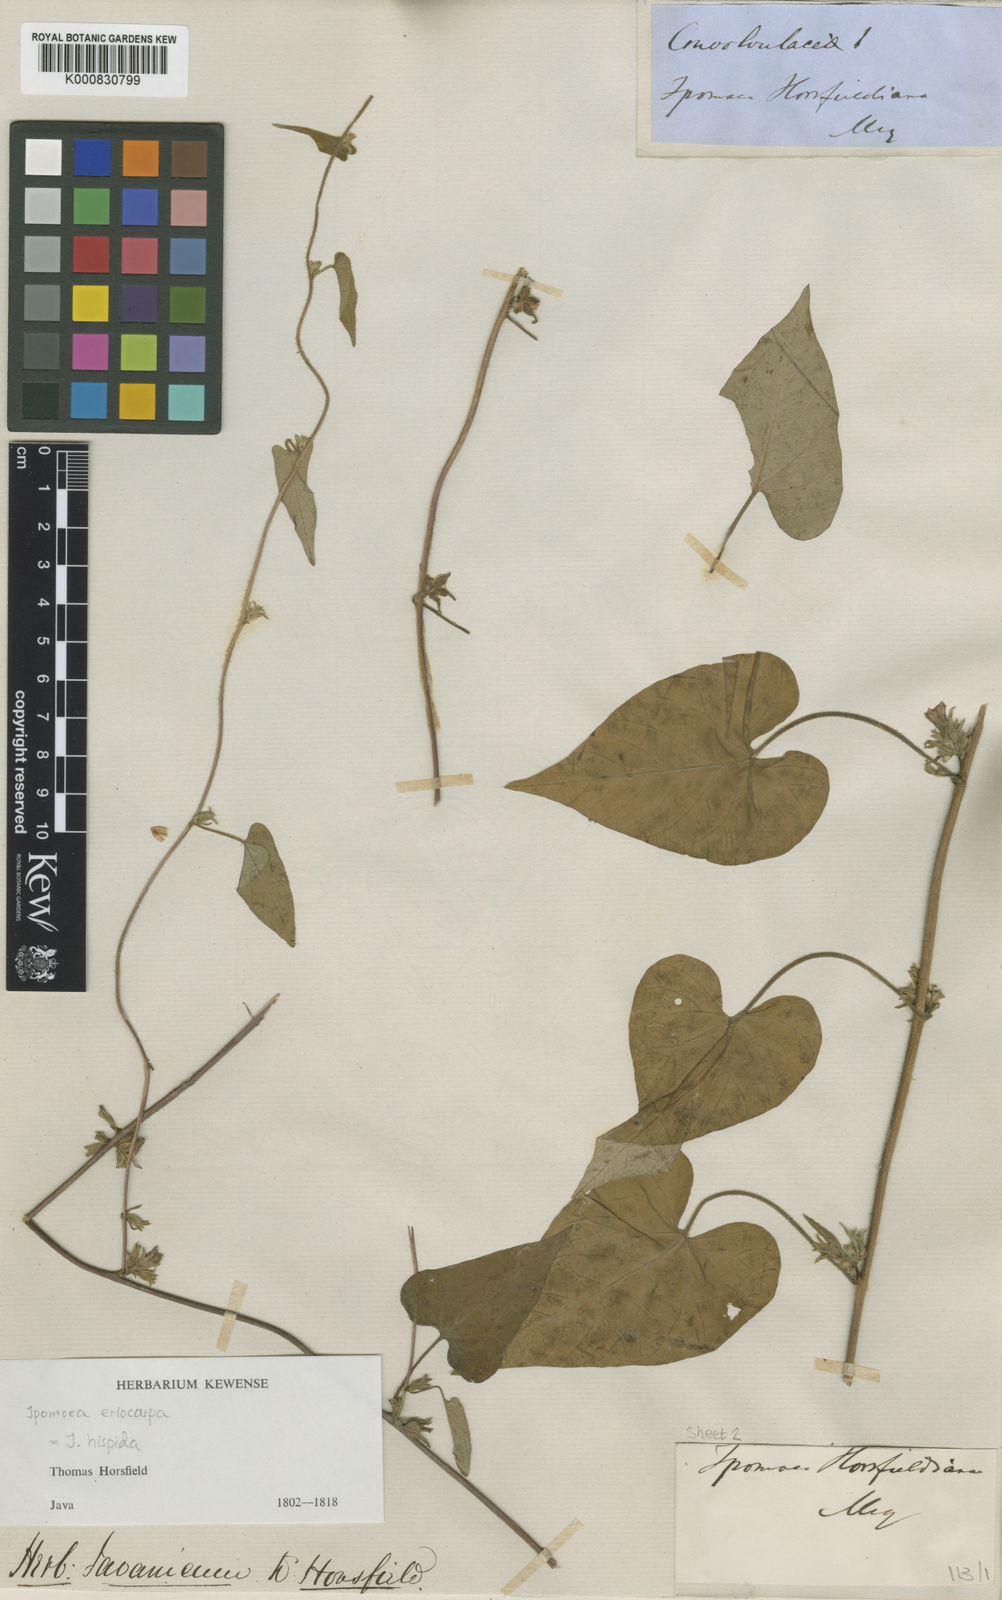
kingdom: Plantae
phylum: Tracheophyta
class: Magnoliopsida
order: Solanales
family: Convolvulaceae
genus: Ipomoea
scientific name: Ipomoea eriocarpa
